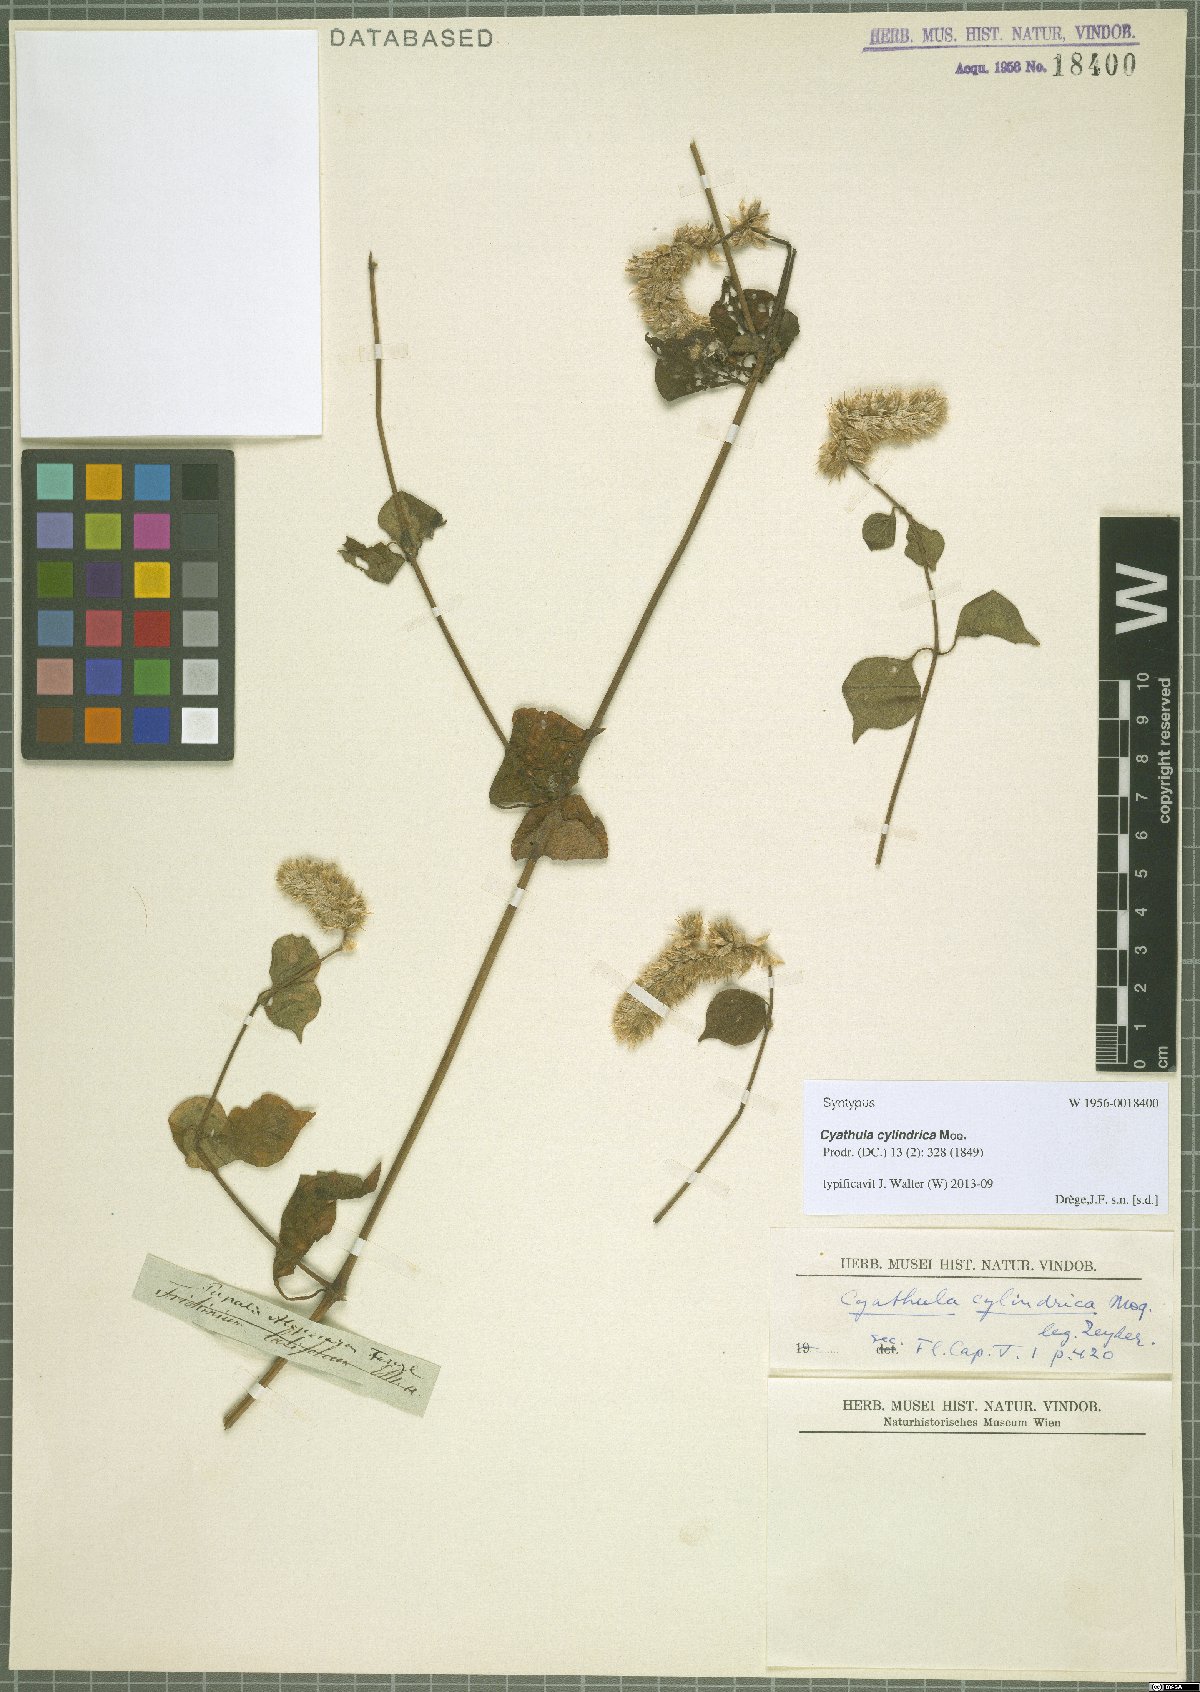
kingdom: Plantae
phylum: Tracheophyta
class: Magnoliopsida
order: Caryophyllales
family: Amaranthaceae
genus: Cyathula
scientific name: Cyathula cylindrica
